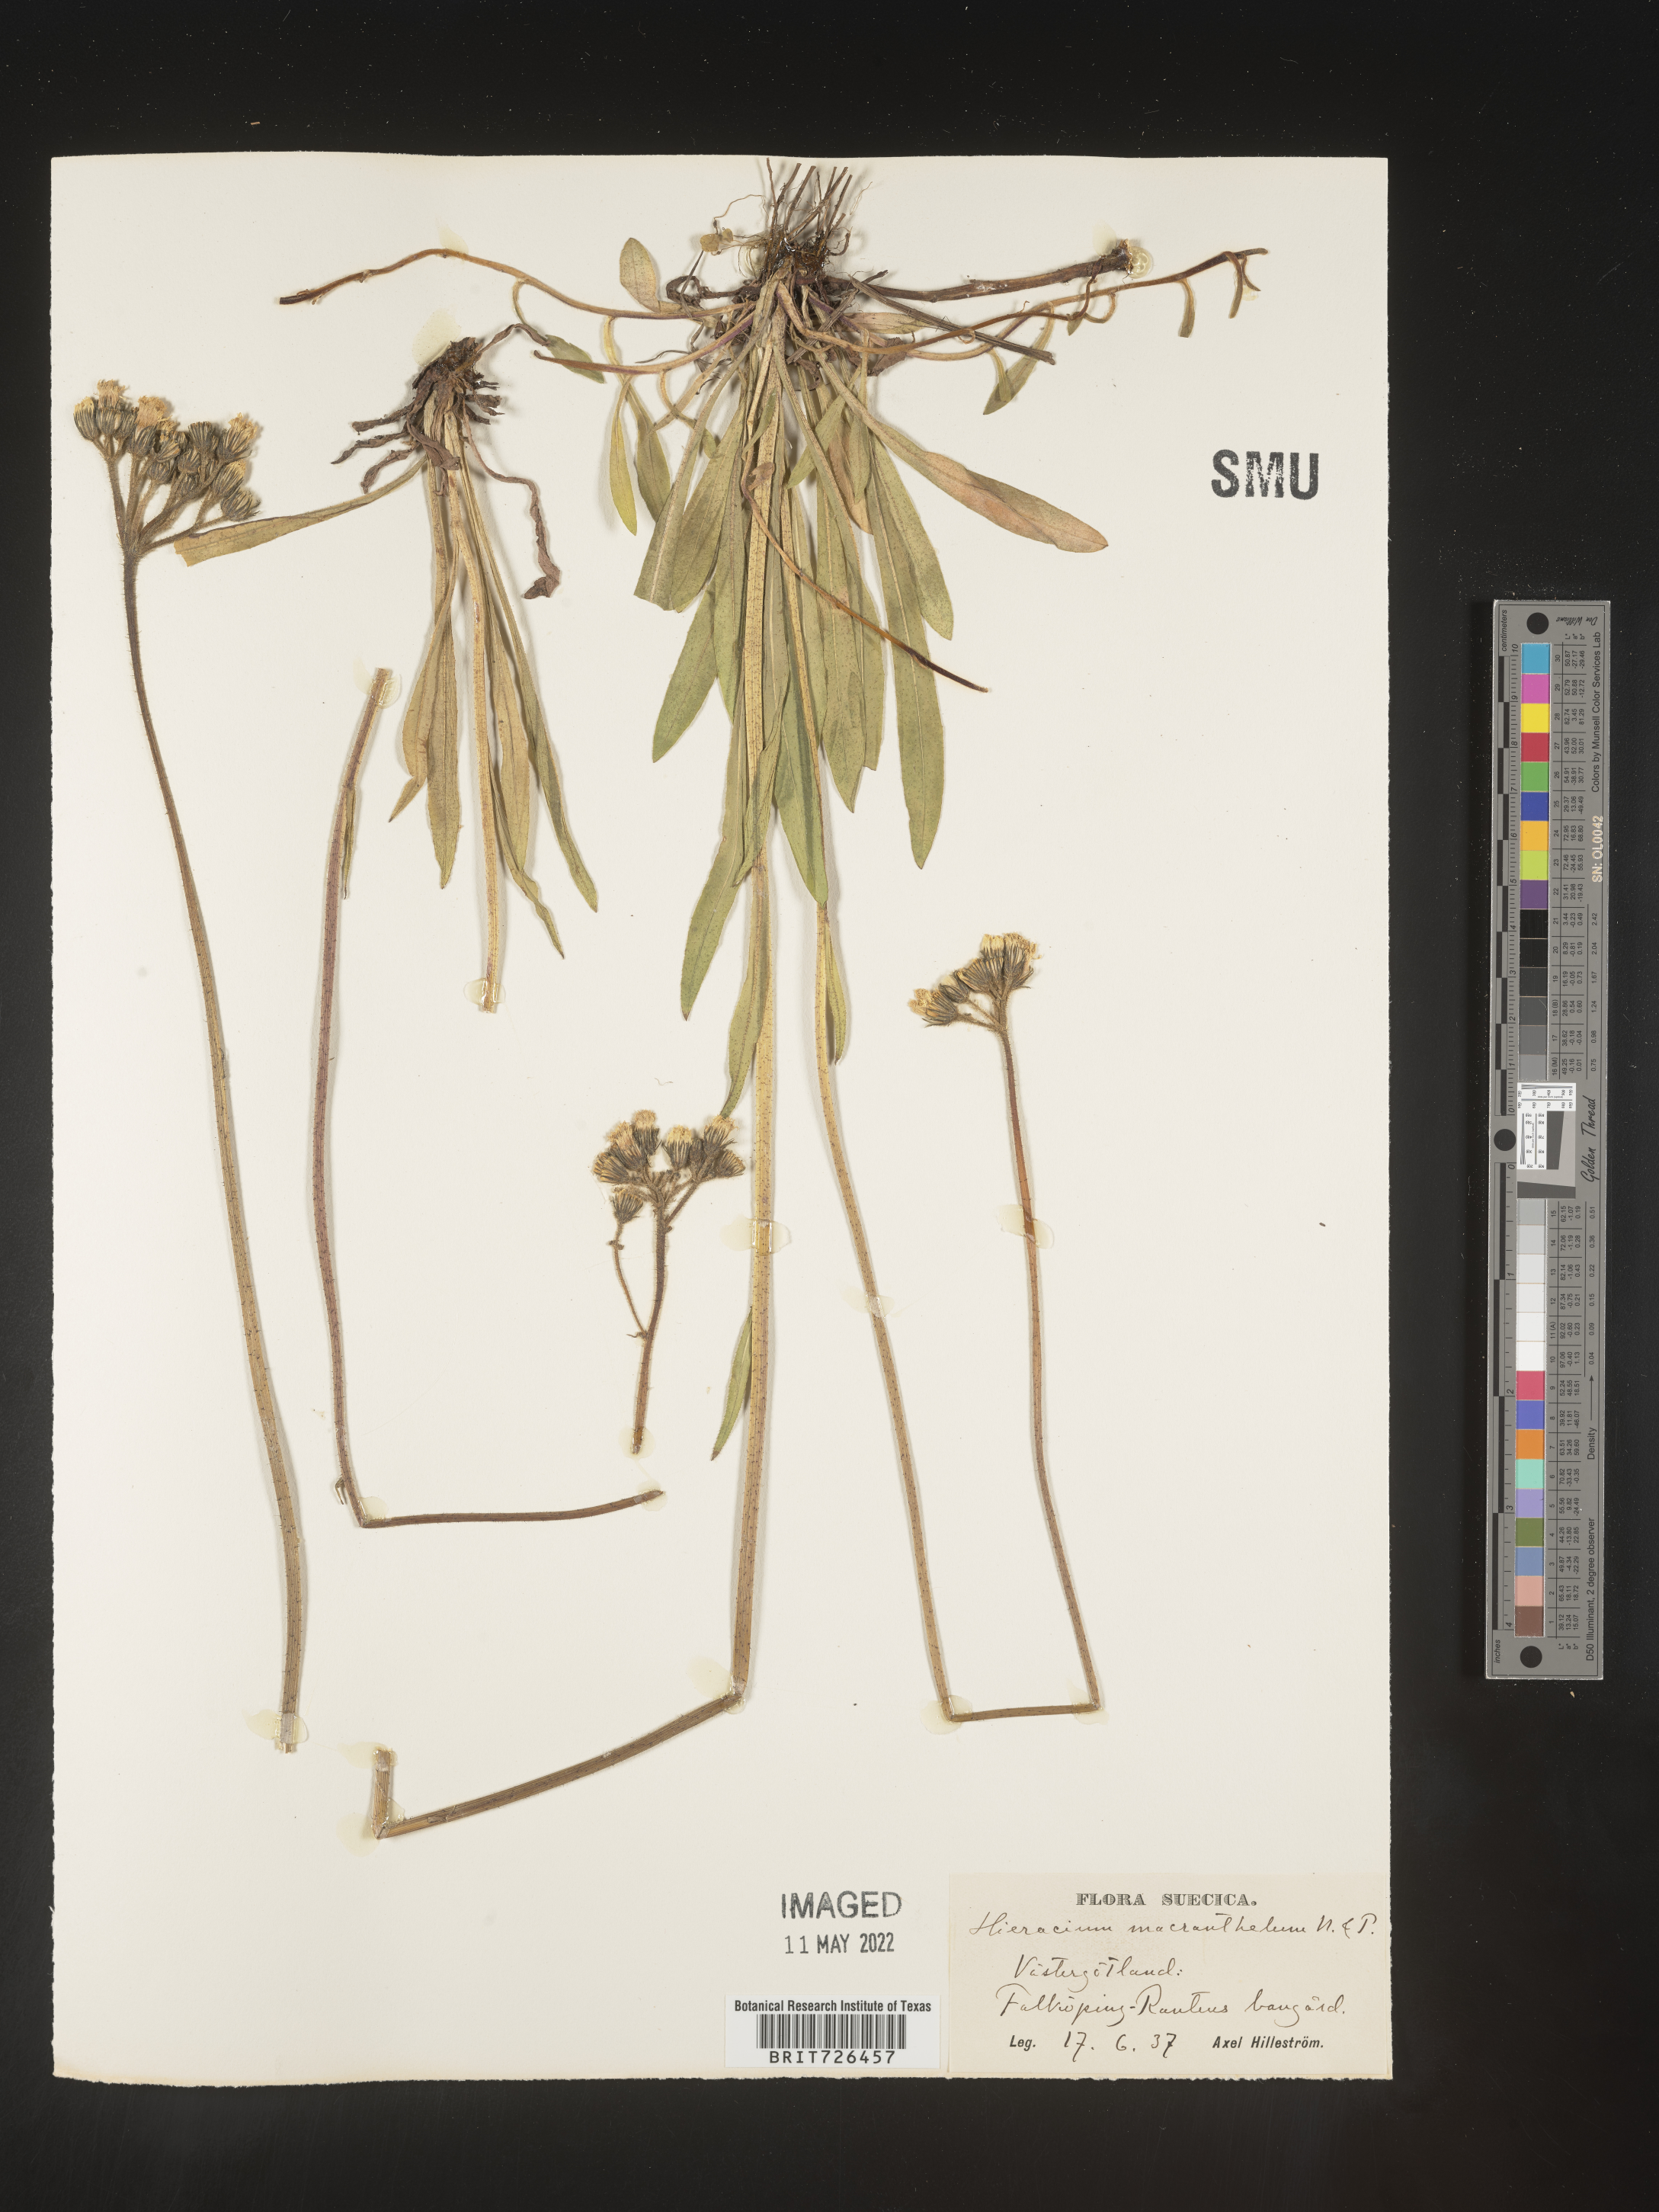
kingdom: Plantae
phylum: Tracheophyta
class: Magnoliopsida
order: Asterales
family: Asteraceae
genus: Hieracium
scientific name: Hieracium
